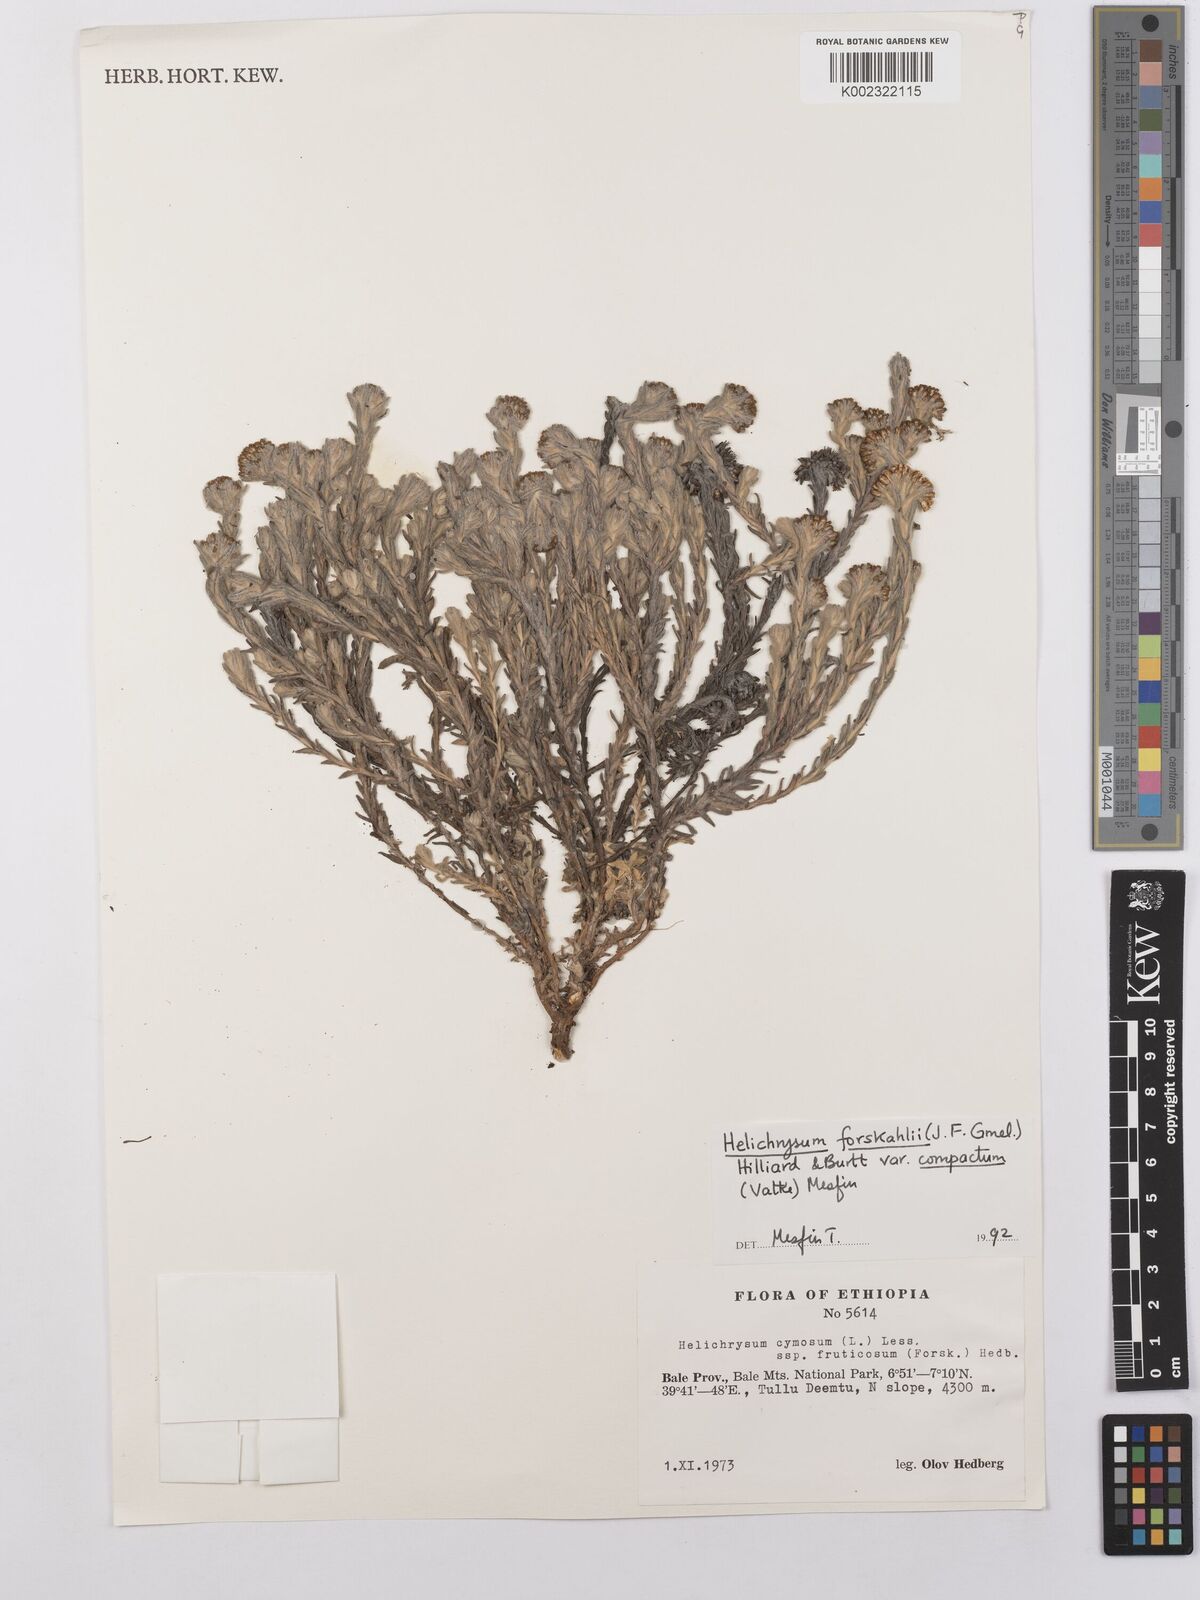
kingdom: Plantae
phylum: Tracheophyta
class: Magnoliopsida
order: Asterales
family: Asteraceae
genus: Helichrysum
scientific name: Helichrysum forskahlii
